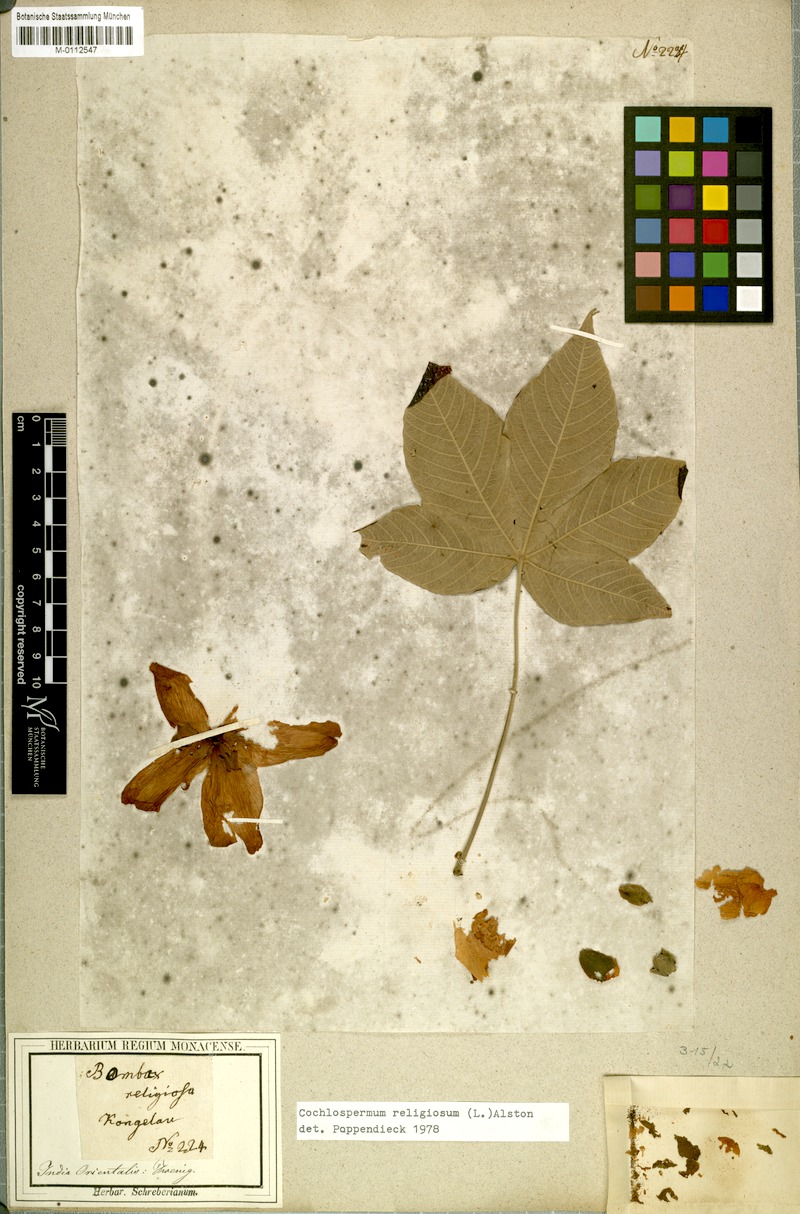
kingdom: Plantae
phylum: Tracheophyta
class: Magnoliopsida
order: Malvales
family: Cochlospermaceae
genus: Cochlospermum
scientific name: Cochlospermum religiosum
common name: Cottontree
